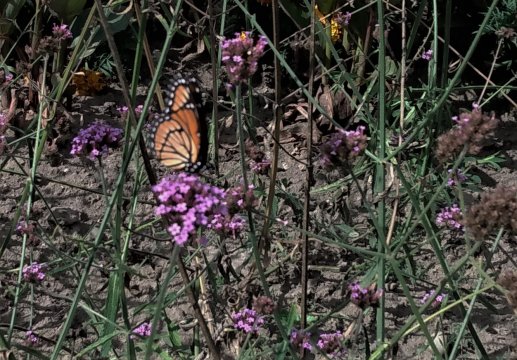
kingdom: Animalia
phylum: Arthropoda
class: Insecta
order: Lepidoptera
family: Nymphalidae
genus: Limenitis
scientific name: Limenitis archippus
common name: Viceroy
